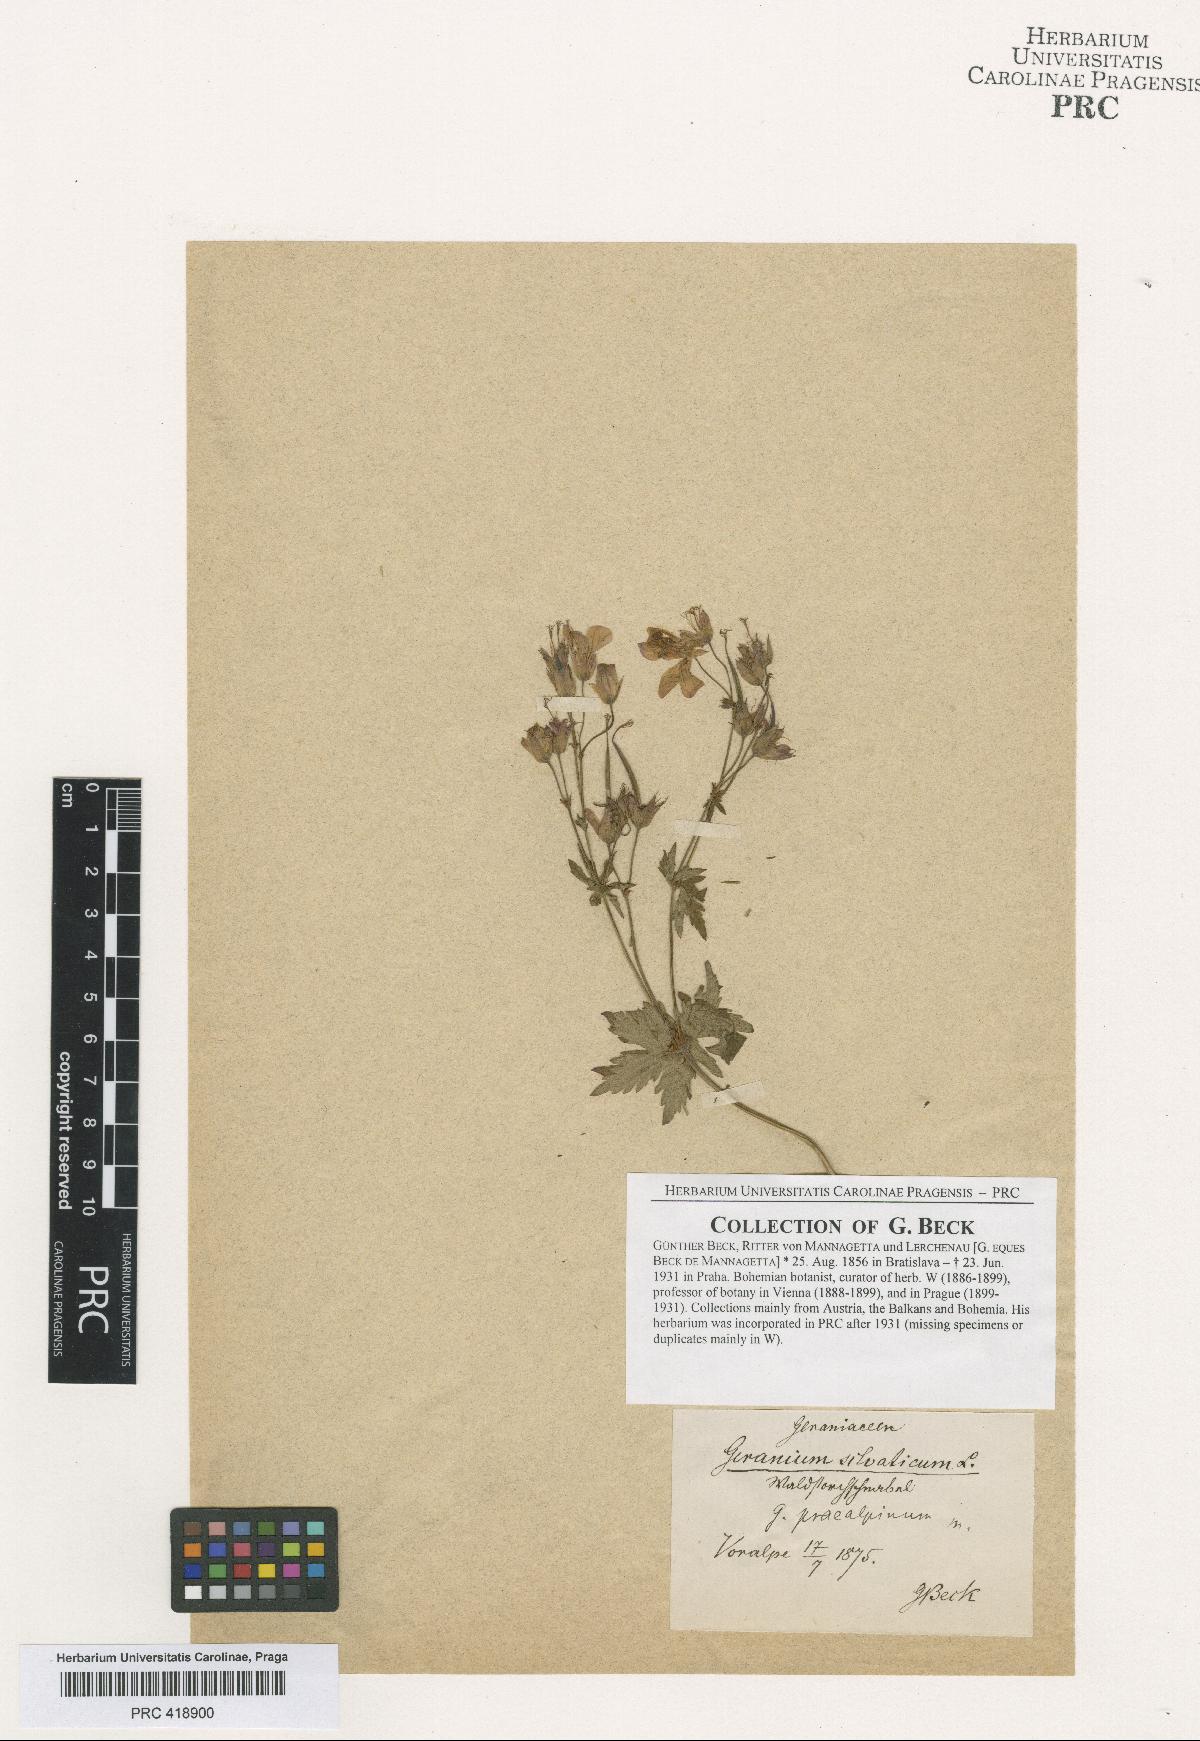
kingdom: Plantae
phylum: Tracheophyta
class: Magnoliopsida
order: Geraniales
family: Geraniaceae
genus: Geranium
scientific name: Geranium sylvaticum
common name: Wood crane's-bill
